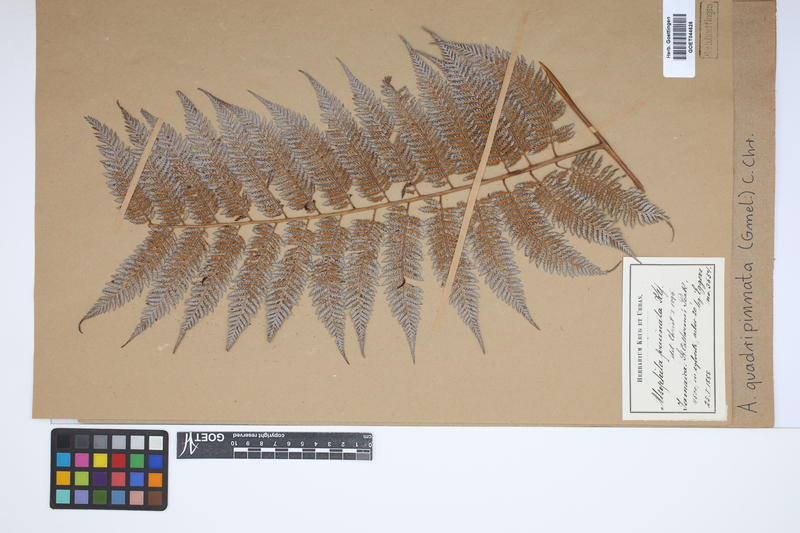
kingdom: Plantae
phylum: Tracheophyta
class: Polypodiopsida
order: Cyatheales
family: Dicksoniaceae
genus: Lophosoria
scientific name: Lophosoria quadripinnata
